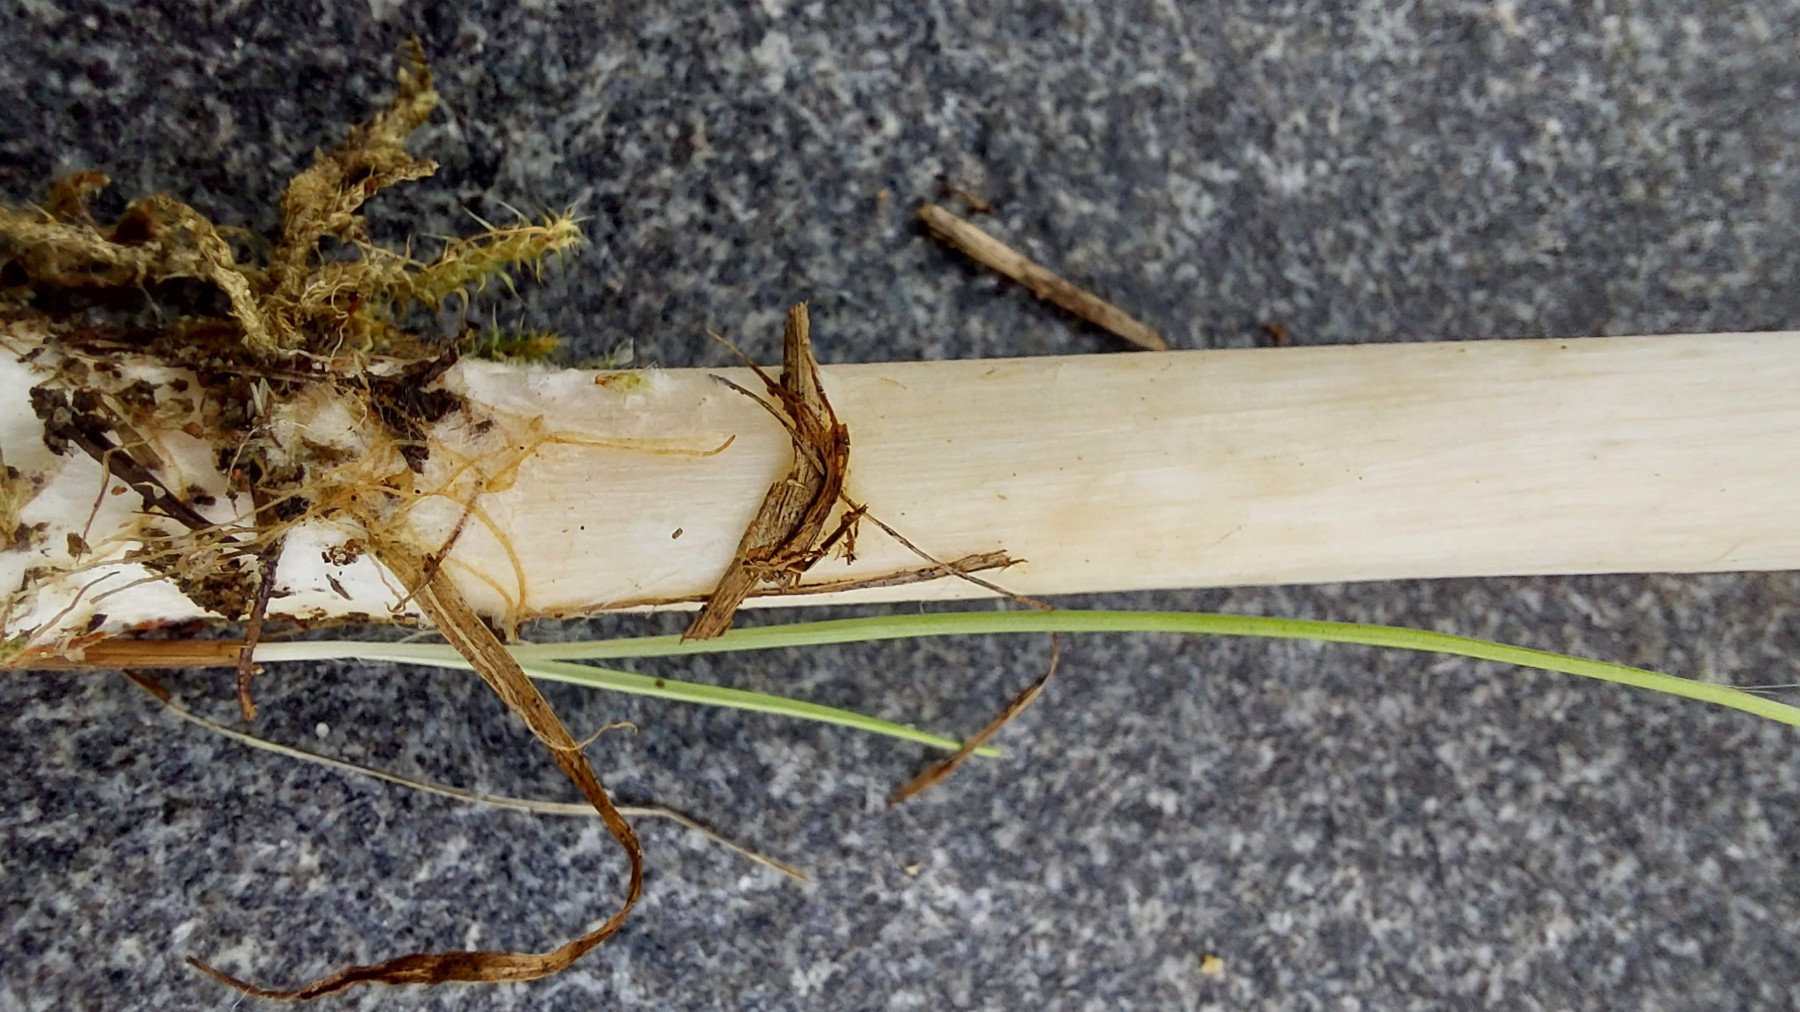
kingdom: Fungi
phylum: Basidiomycota
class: Agaricomycetes
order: Agaricales
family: Tricholomataceae
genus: Melanoleuca
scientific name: Melanoleuca strictipes
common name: sommer-munkehat
